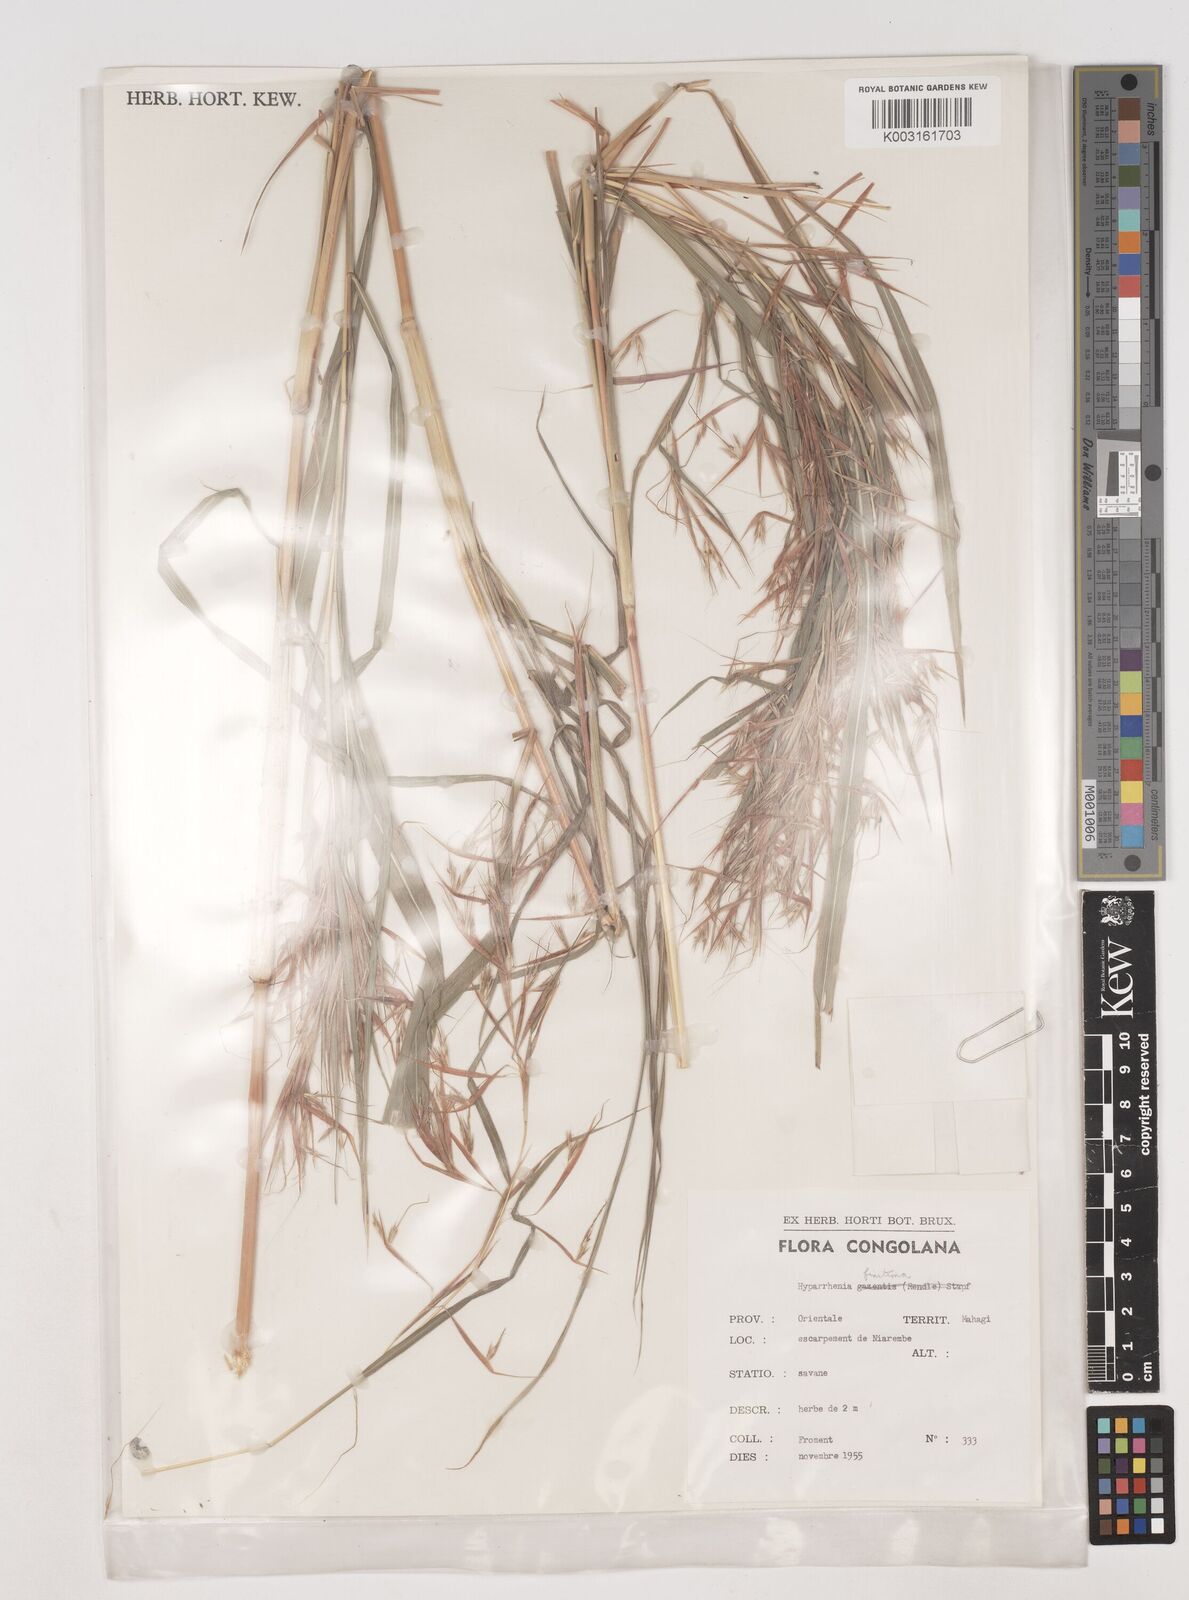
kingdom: Plantae
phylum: Tracheophyta
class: Liliopsida
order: Poales
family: Poaceae
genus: Hyparrhenia
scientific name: Hyparrhenia finitima
